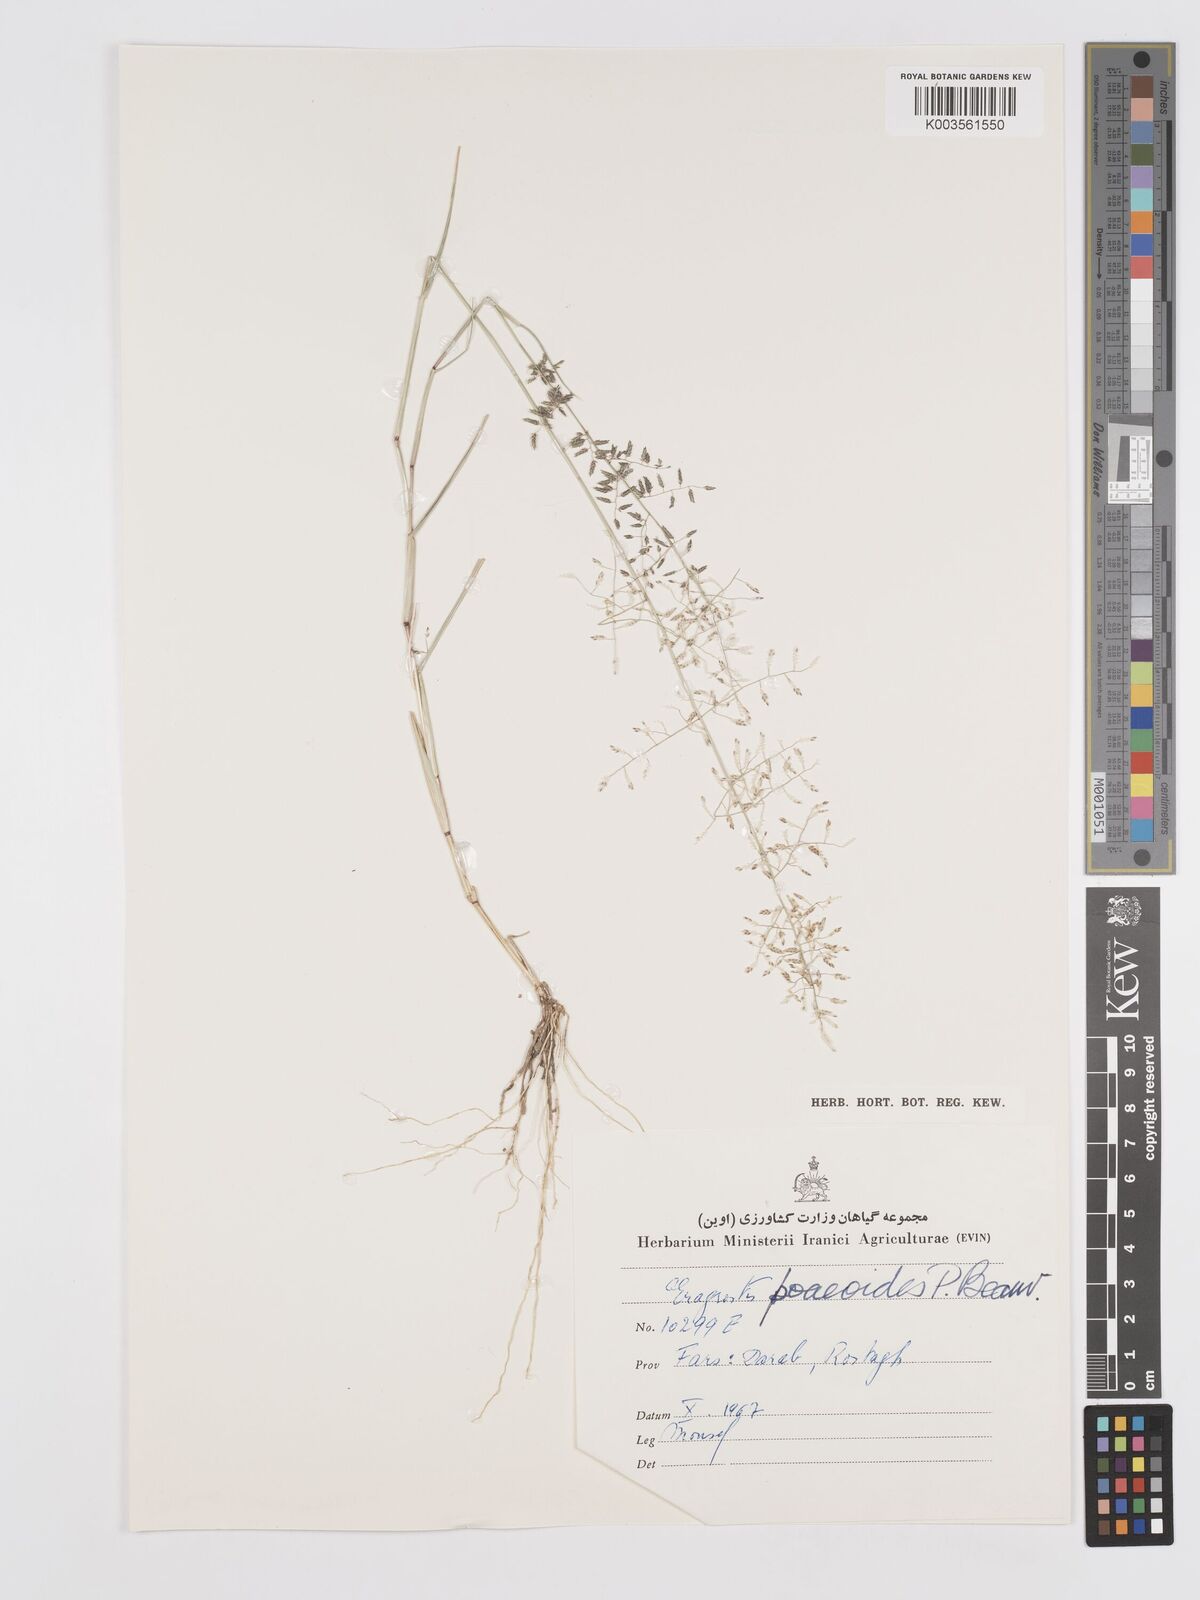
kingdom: Plantae
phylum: Tracheophyta
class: Liliopsida
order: Poales
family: Poaceae
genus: Eragrostis
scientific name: Eragrostis minor
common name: Small love-grass
